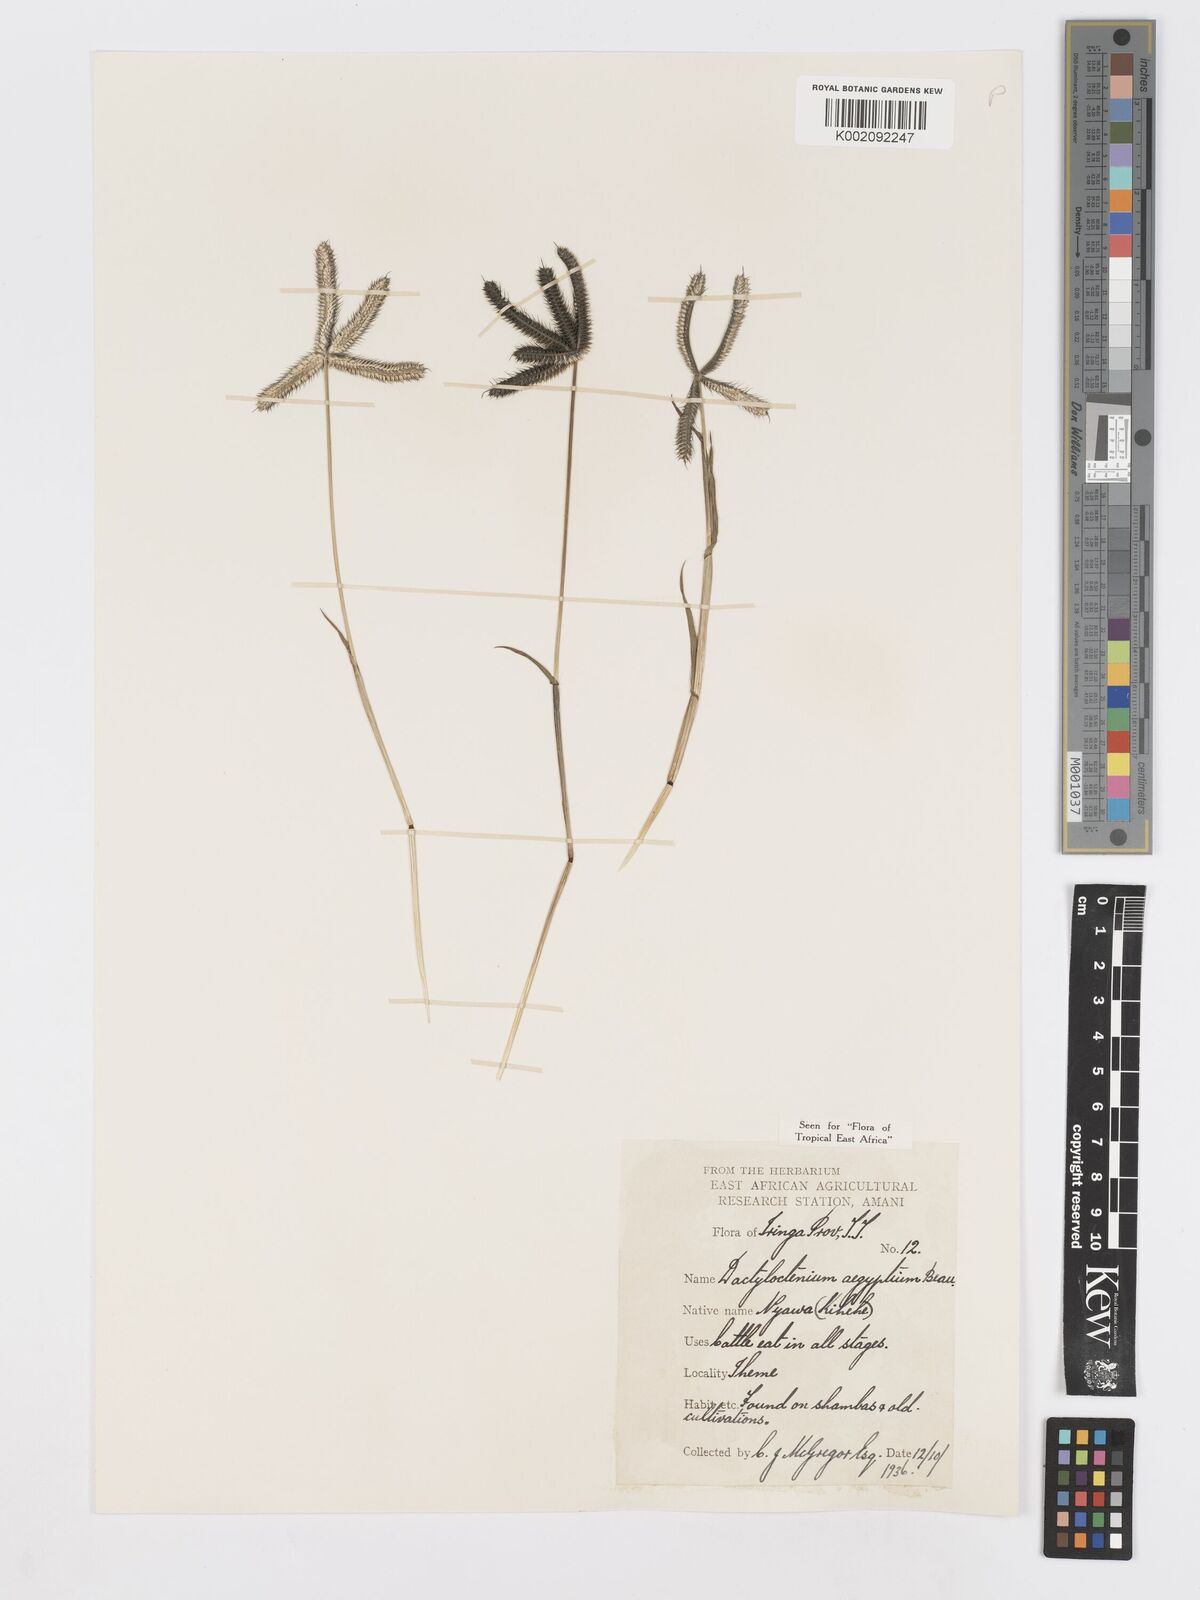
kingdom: Plantae
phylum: Tracheophyta
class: Liliopsida
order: Poales
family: Poaceae
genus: Dactyloctenium
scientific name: Dactyloctenium aegyptium
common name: Egyptian grass
